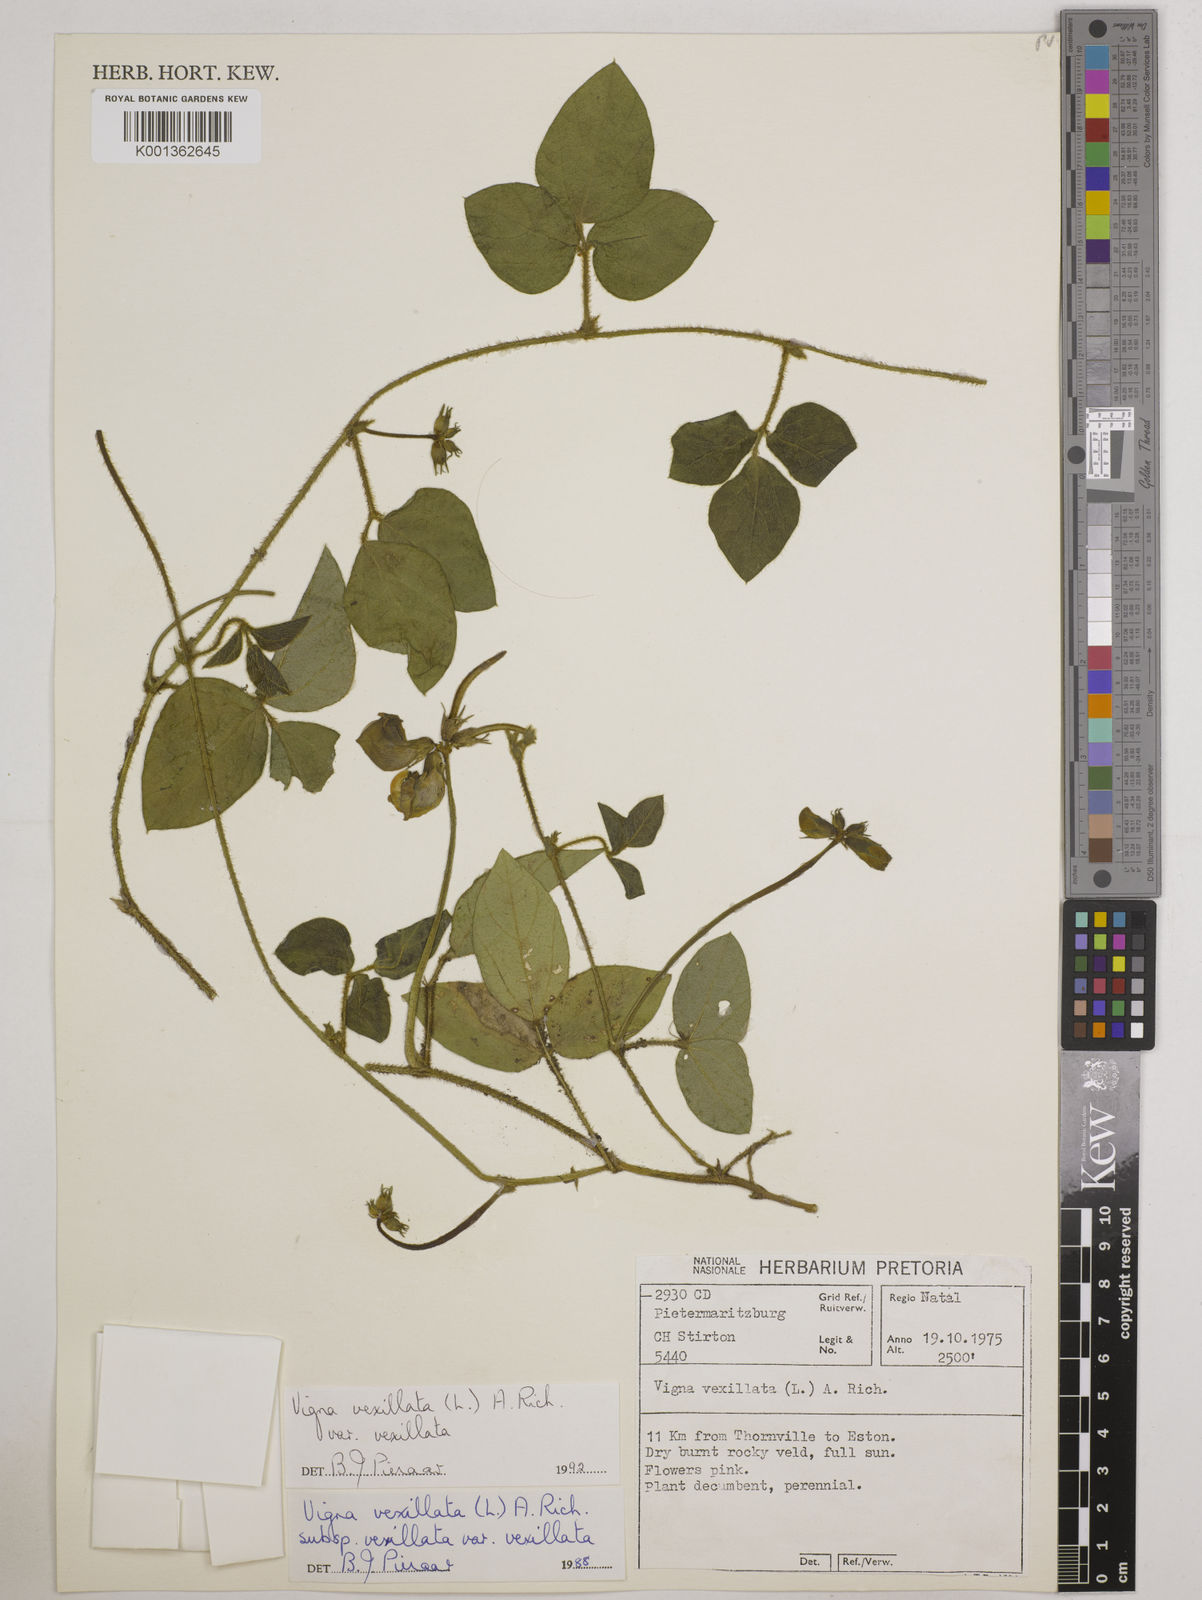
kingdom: Plantae
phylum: Tracheophyta
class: Magnoliopsida
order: Fabales
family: Fabaceae
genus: Vigna
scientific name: Vigna vexillata
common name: Zombi pea
